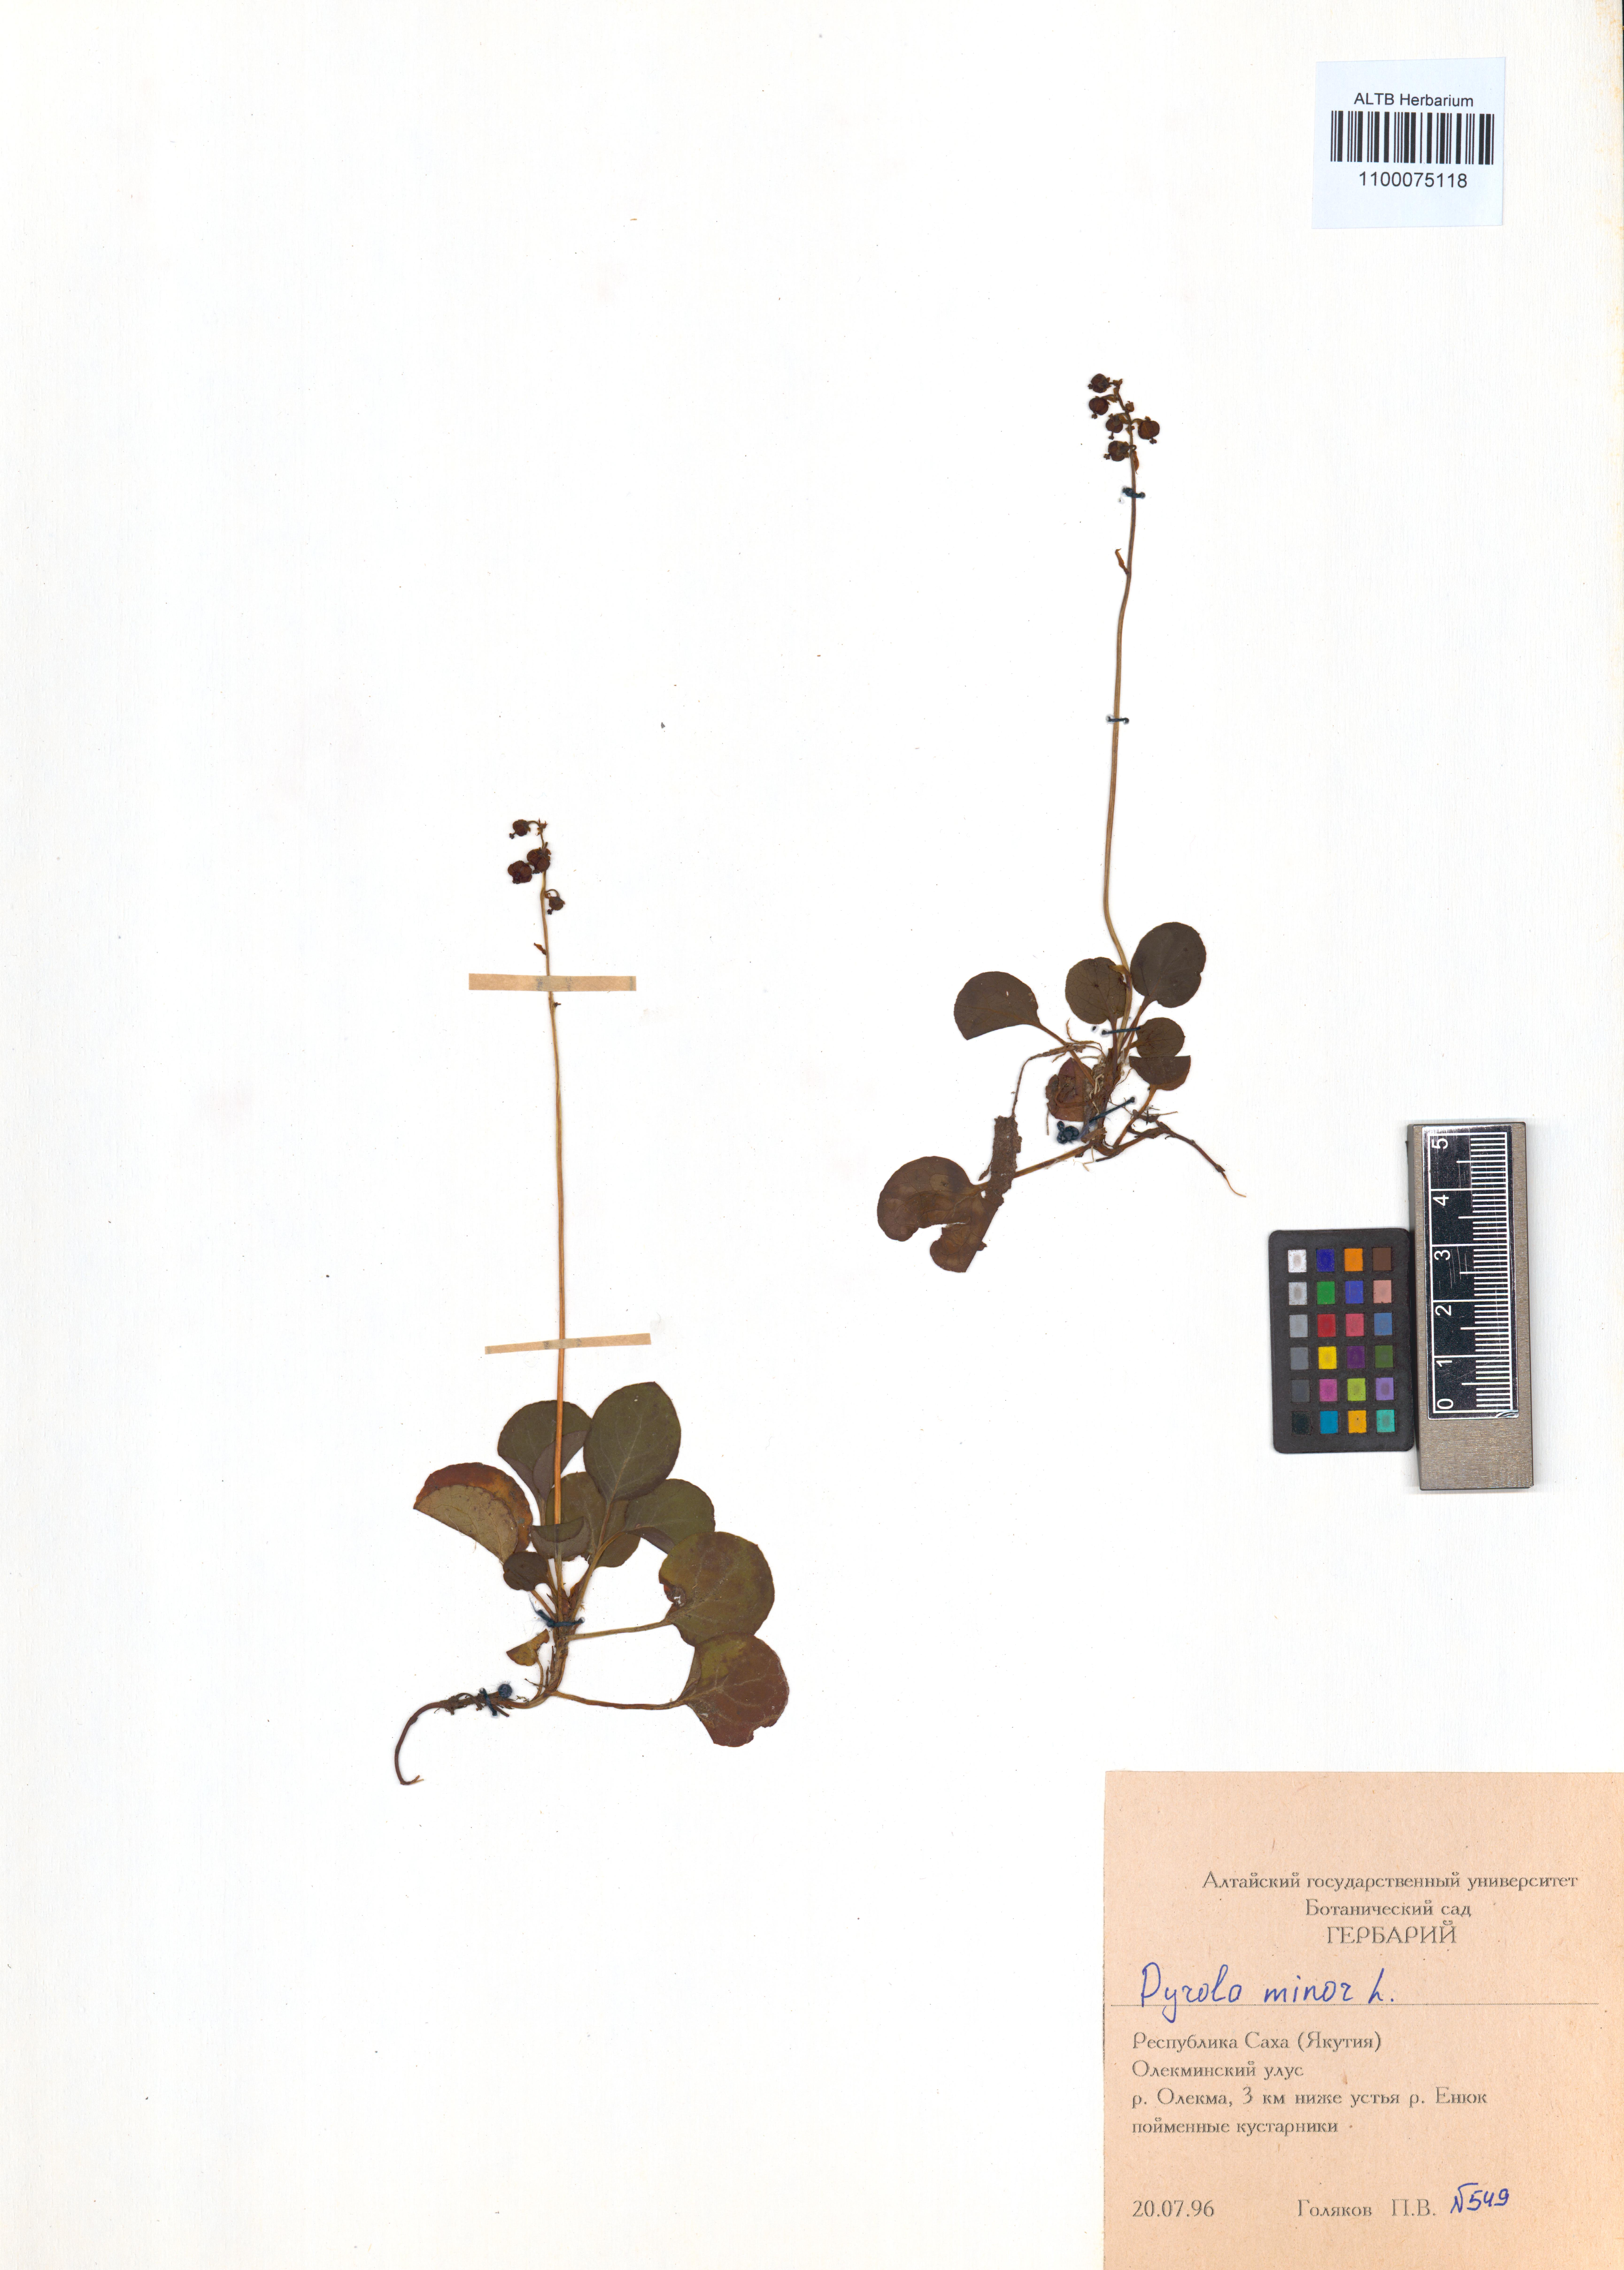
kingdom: Plantae
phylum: Tracheophyta
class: Magnoliopsida
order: Ericales
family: Ericaceae
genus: Pyrola
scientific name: Pyrola minor
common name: Common wintergreen
